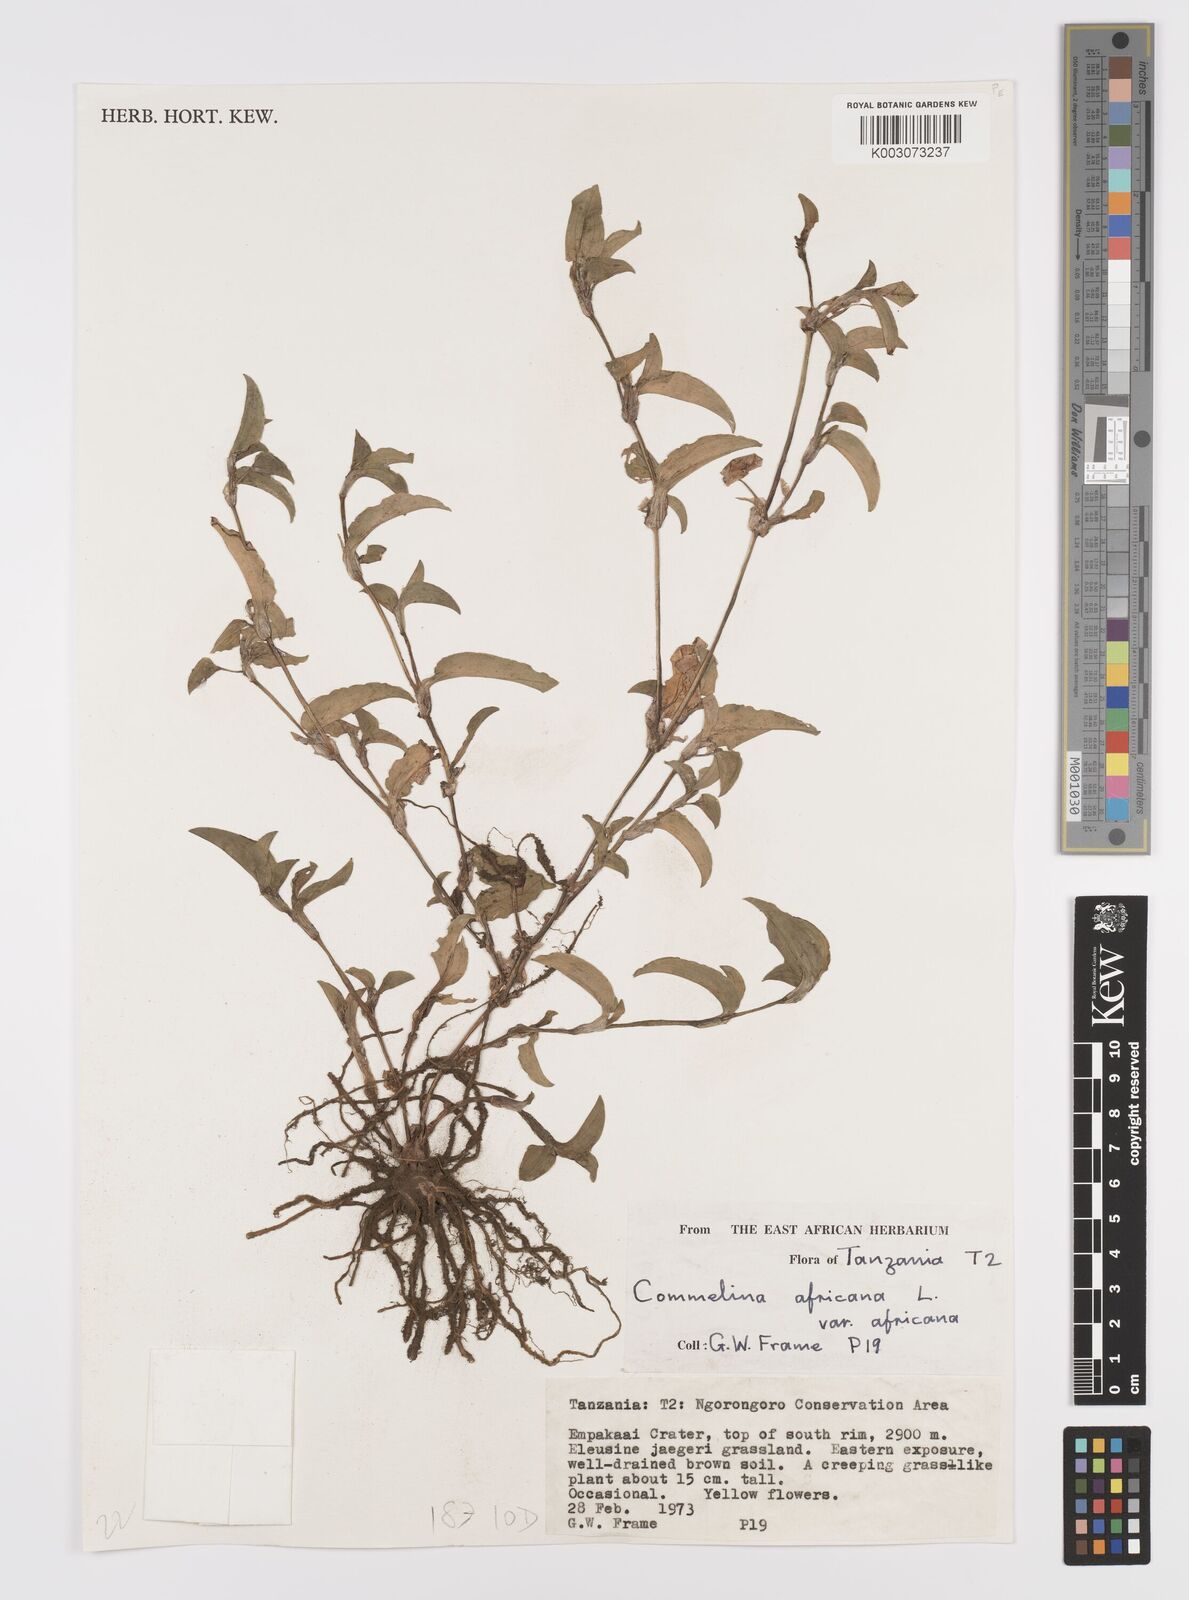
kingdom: Plantae
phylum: Tracheophyta
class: Liliopsida
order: Commelinales
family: Commelinaceae
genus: Commelina
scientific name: Commelina africana
